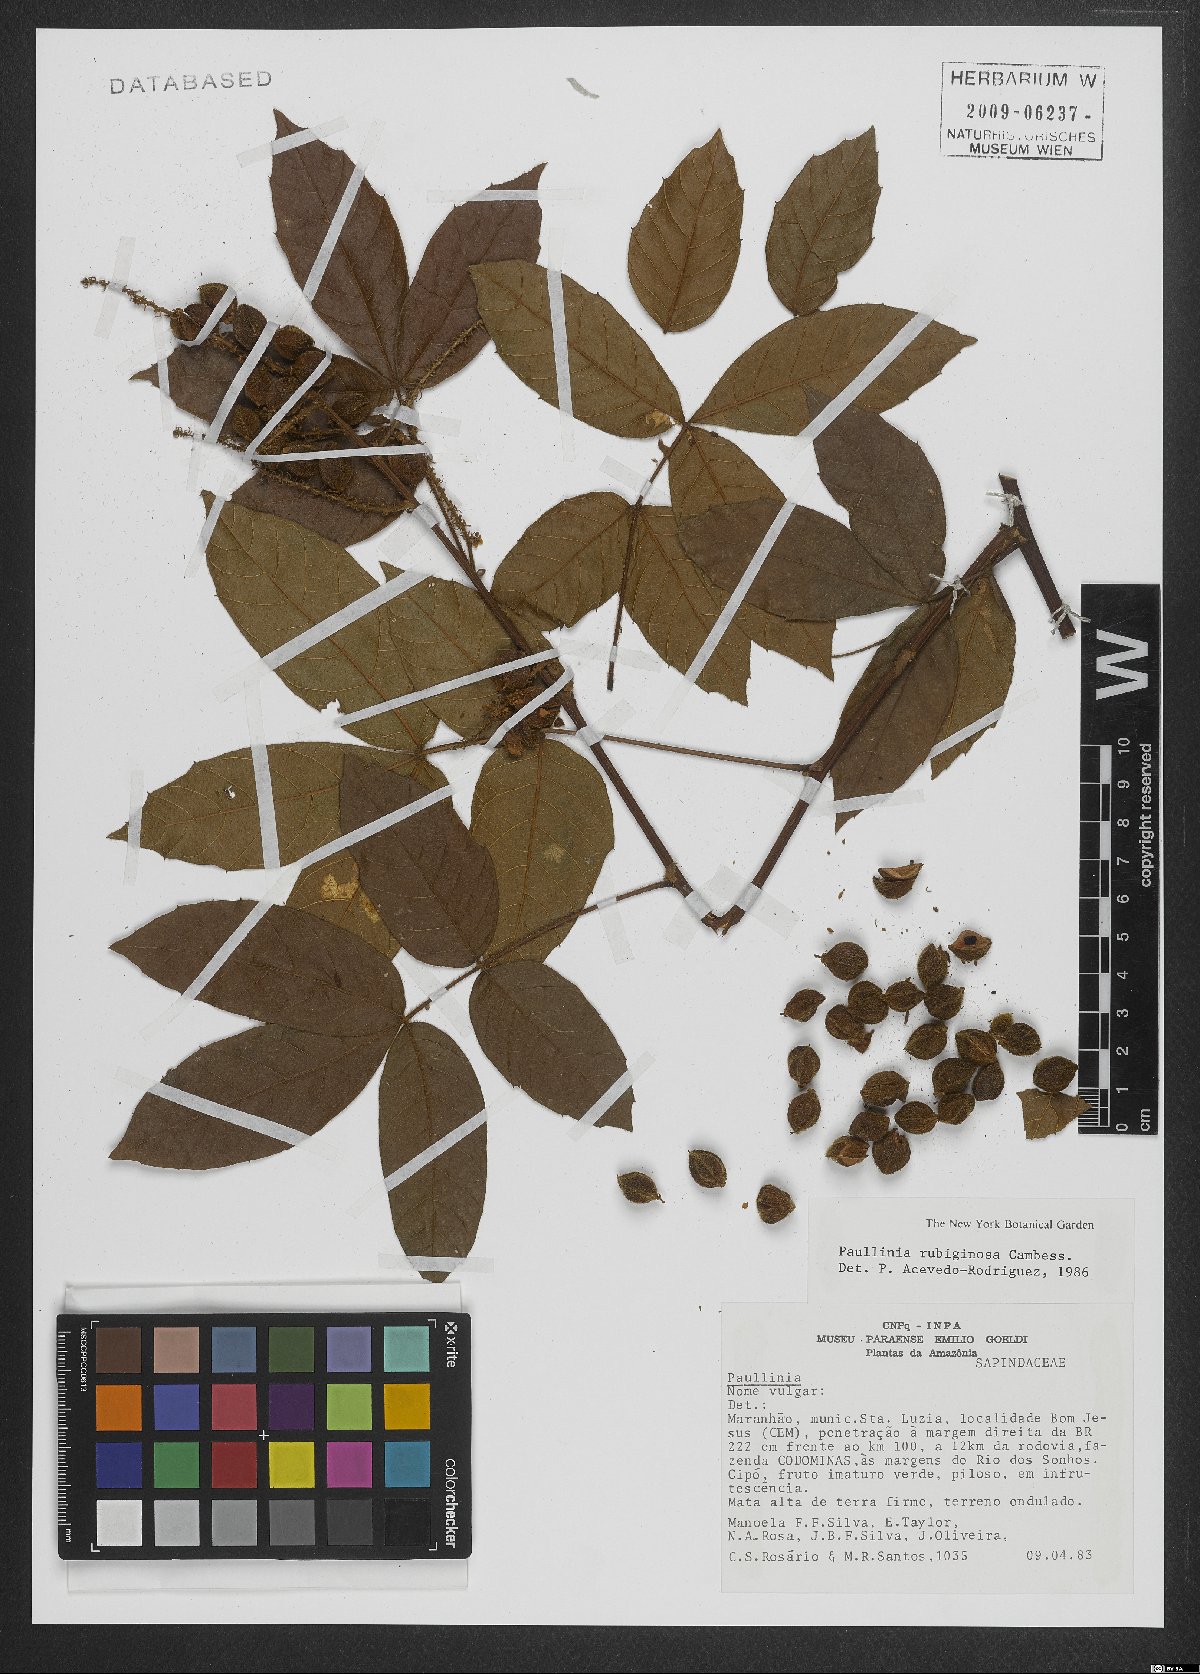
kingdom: Plantae
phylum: Tracheophyta
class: Magnoliopsida
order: Sapindales
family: Sapindaceae
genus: Paullinia
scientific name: Paullinia rubiginosa
